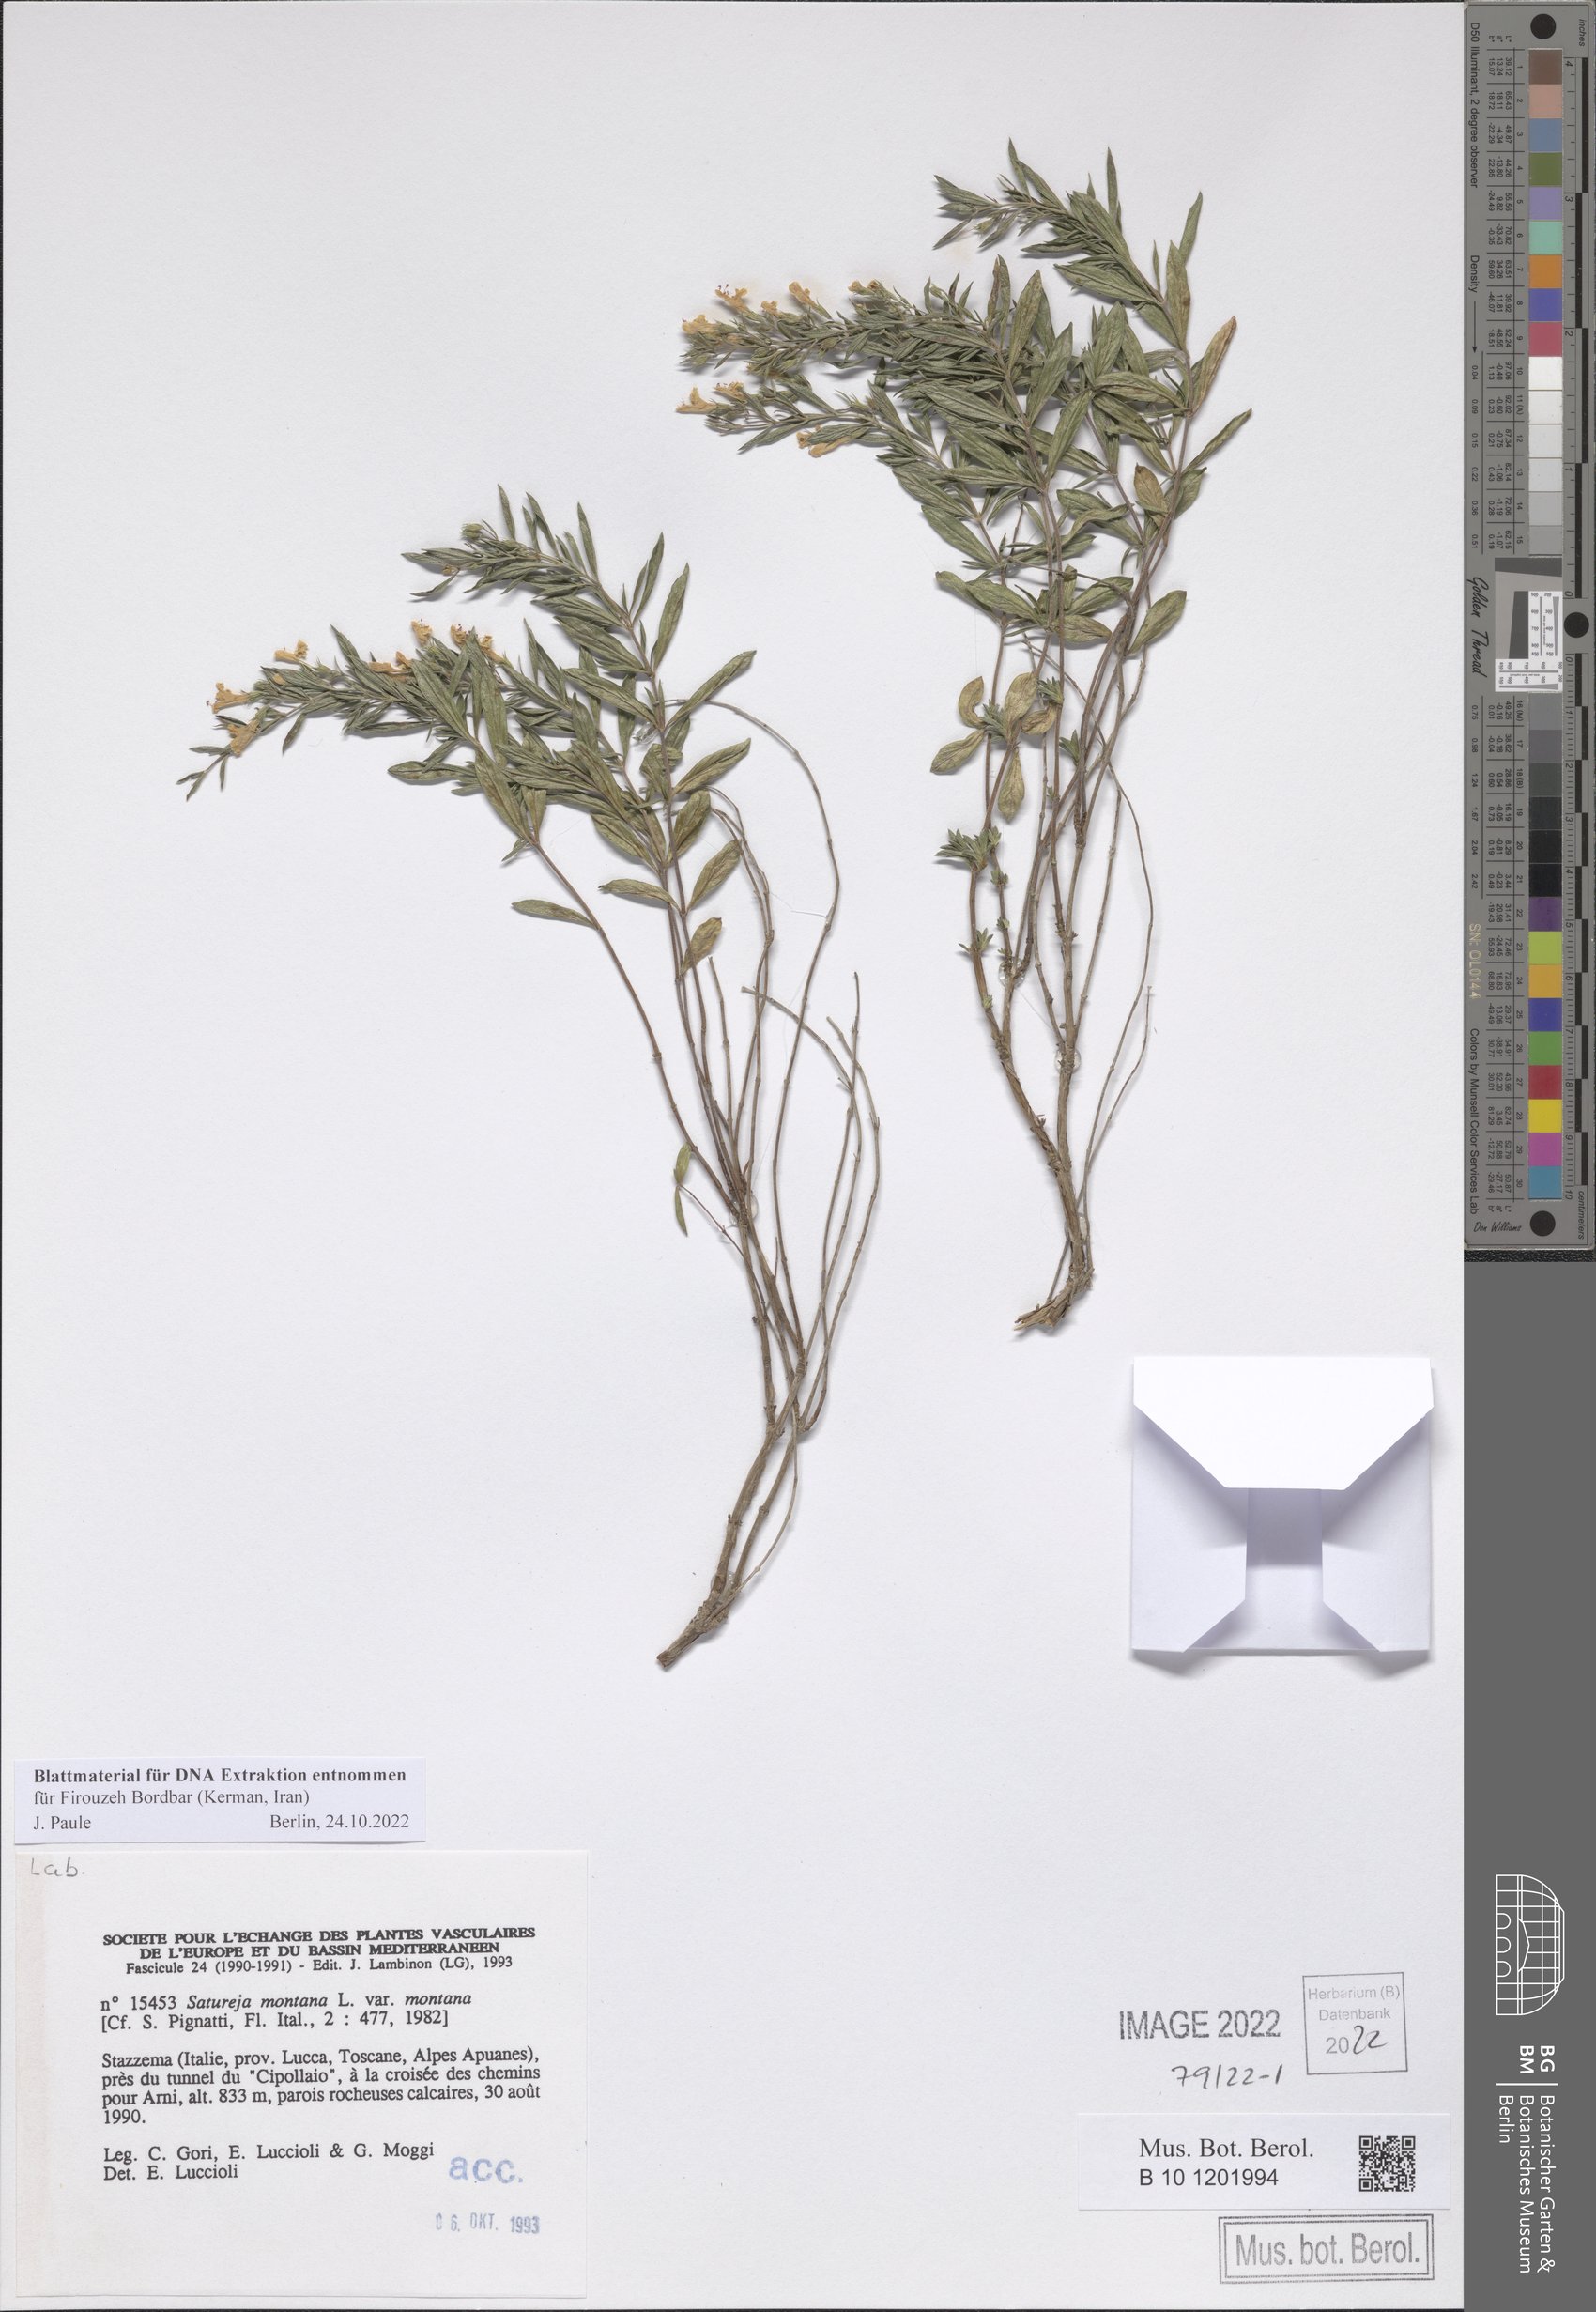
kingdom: Plantae
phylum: Tracheophyta
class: Magnoliopsida
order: Lamiales
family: Lamiaceae
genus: Satureja
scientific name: Satureja montana
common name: Winter savory
